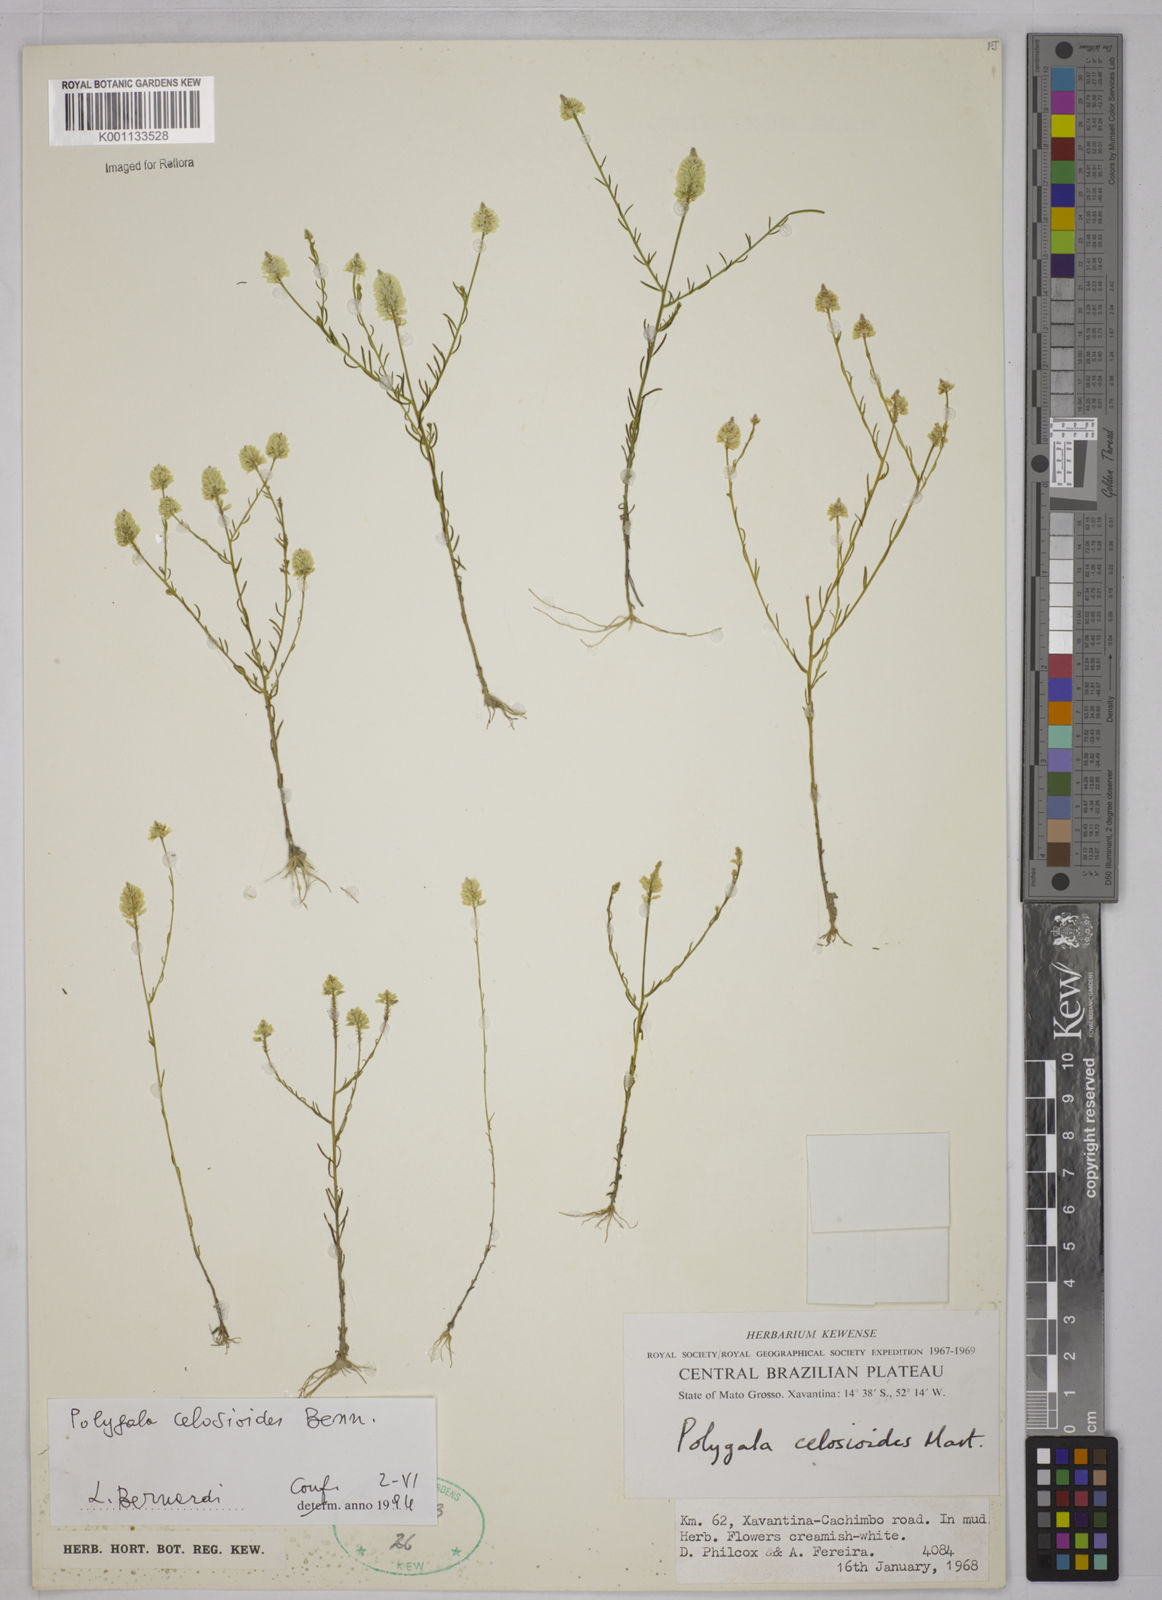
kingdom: Plantae
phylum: Tracheophyta
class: Magnoliopsida
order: Fabales
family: Polygalaceae
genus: Polygala
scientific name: Polygala celosioides
